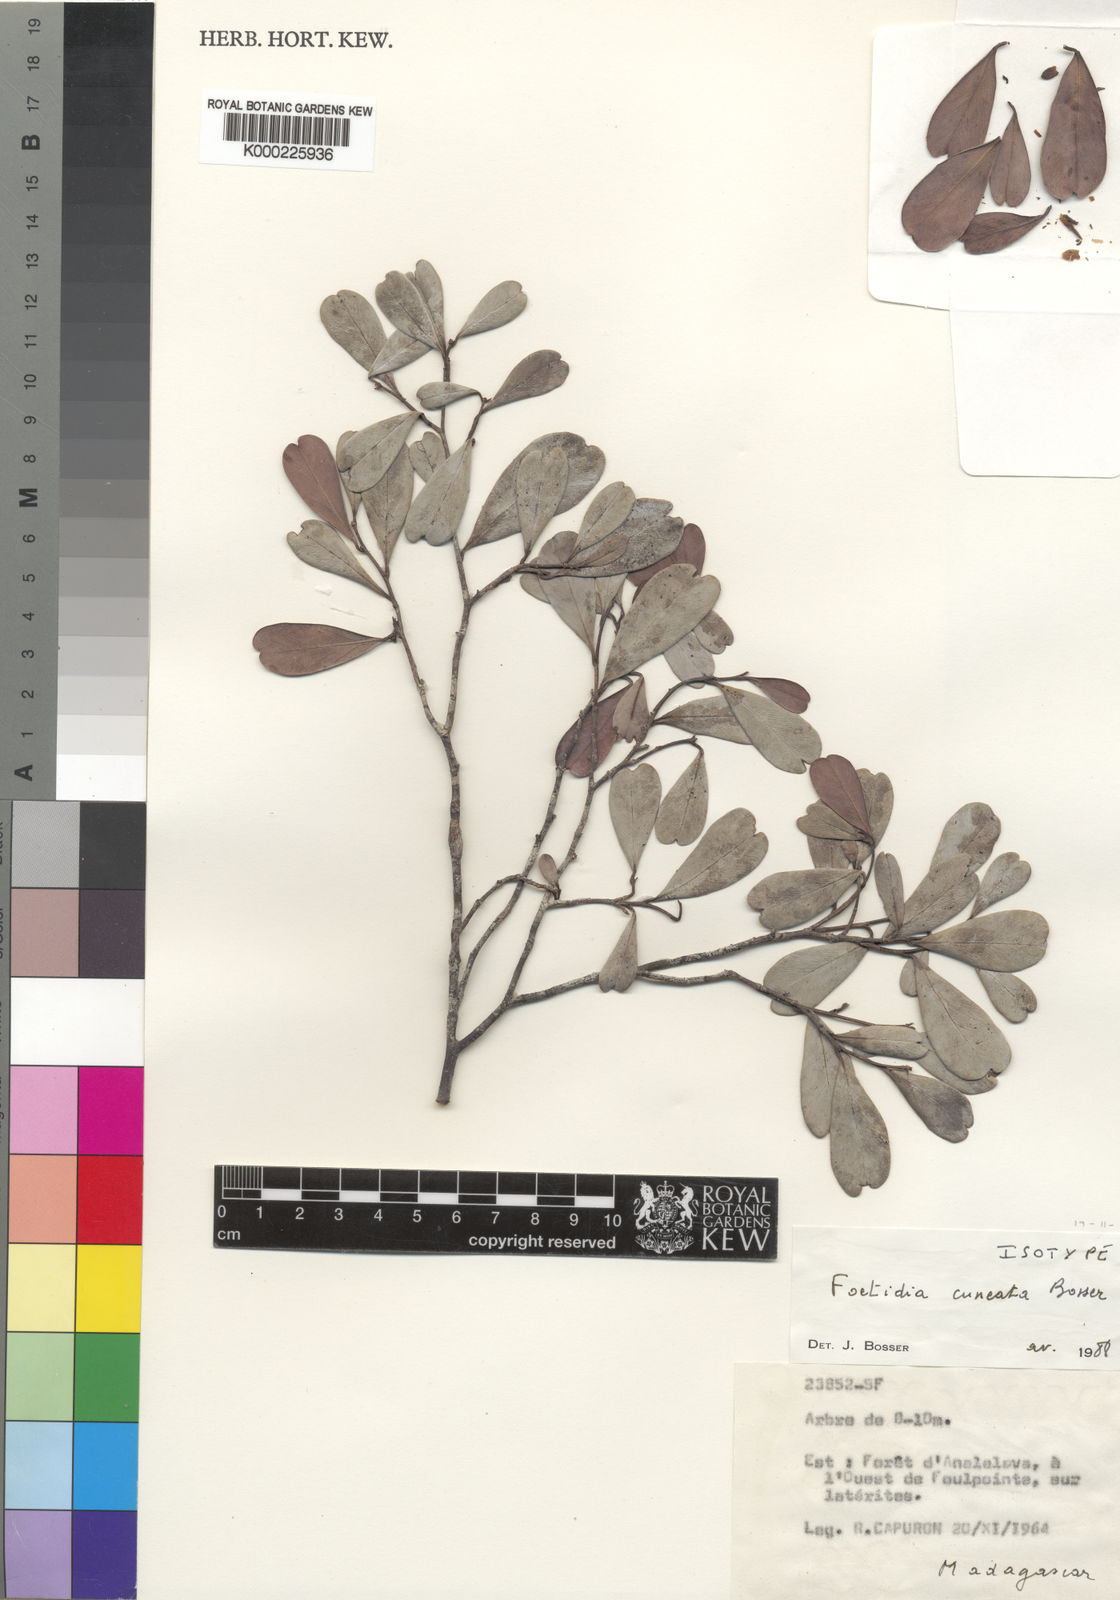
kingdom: Plantae
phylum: Tracheophyta
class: Magnoliopsida
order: Ericales
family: Lecythidaceae
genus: Foetidia
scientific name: Foetidia cuneata
